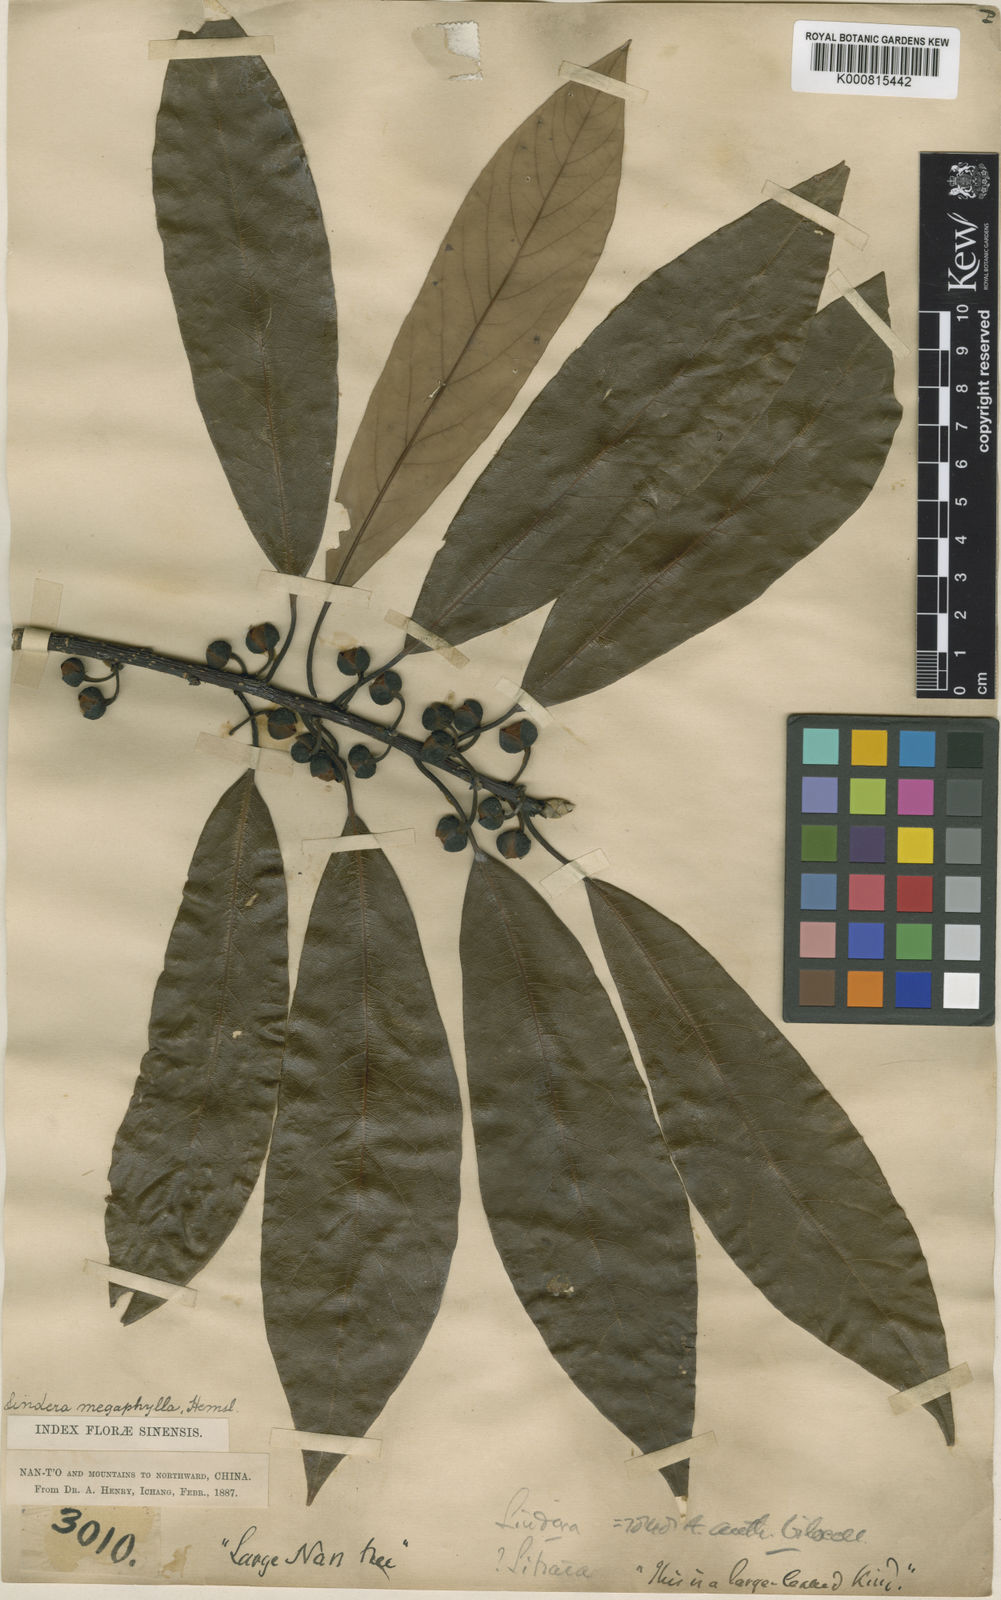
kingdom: Plantae
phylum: Tracheophyta
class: Magnoliopsida
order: Laurales
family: Lauraceae
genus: Lindera
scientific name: Lindera megaphylla
